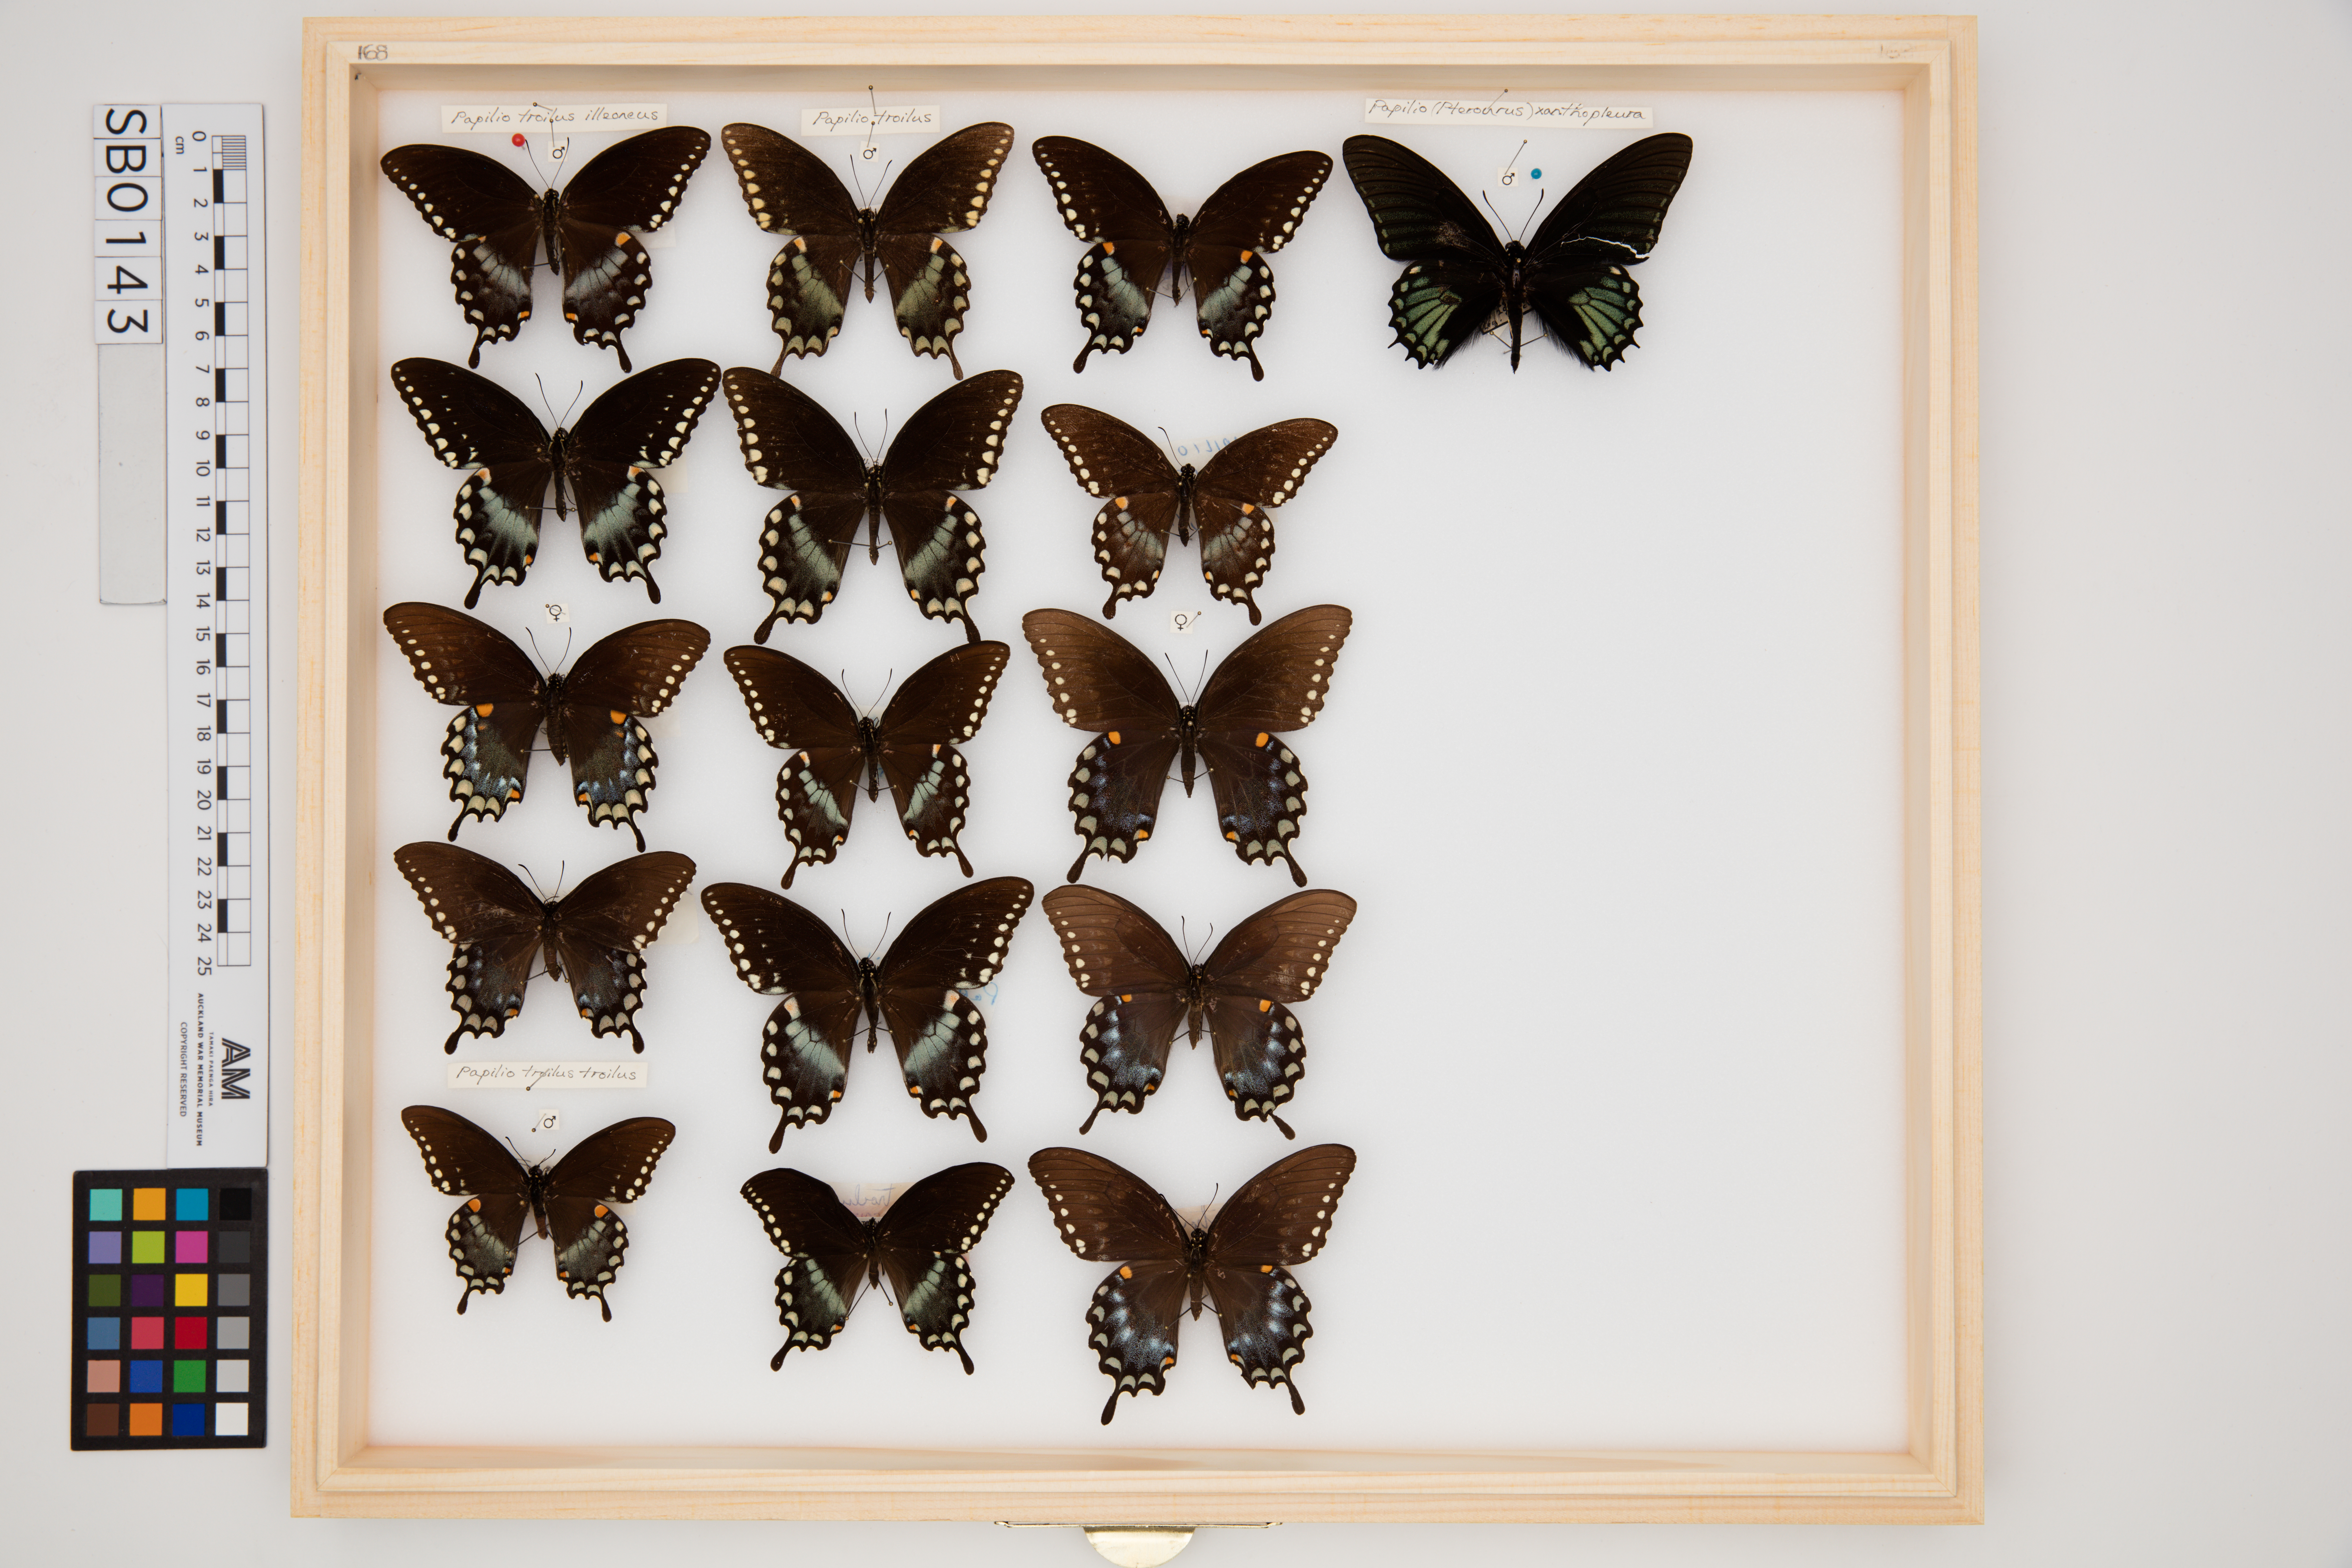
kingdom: Animalia
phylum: Arthropoda
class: Insecta
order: Lepidoptera
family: Papilionidae
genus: Papilio
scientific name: Papilio troilus
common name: Spicebush swallowtail
